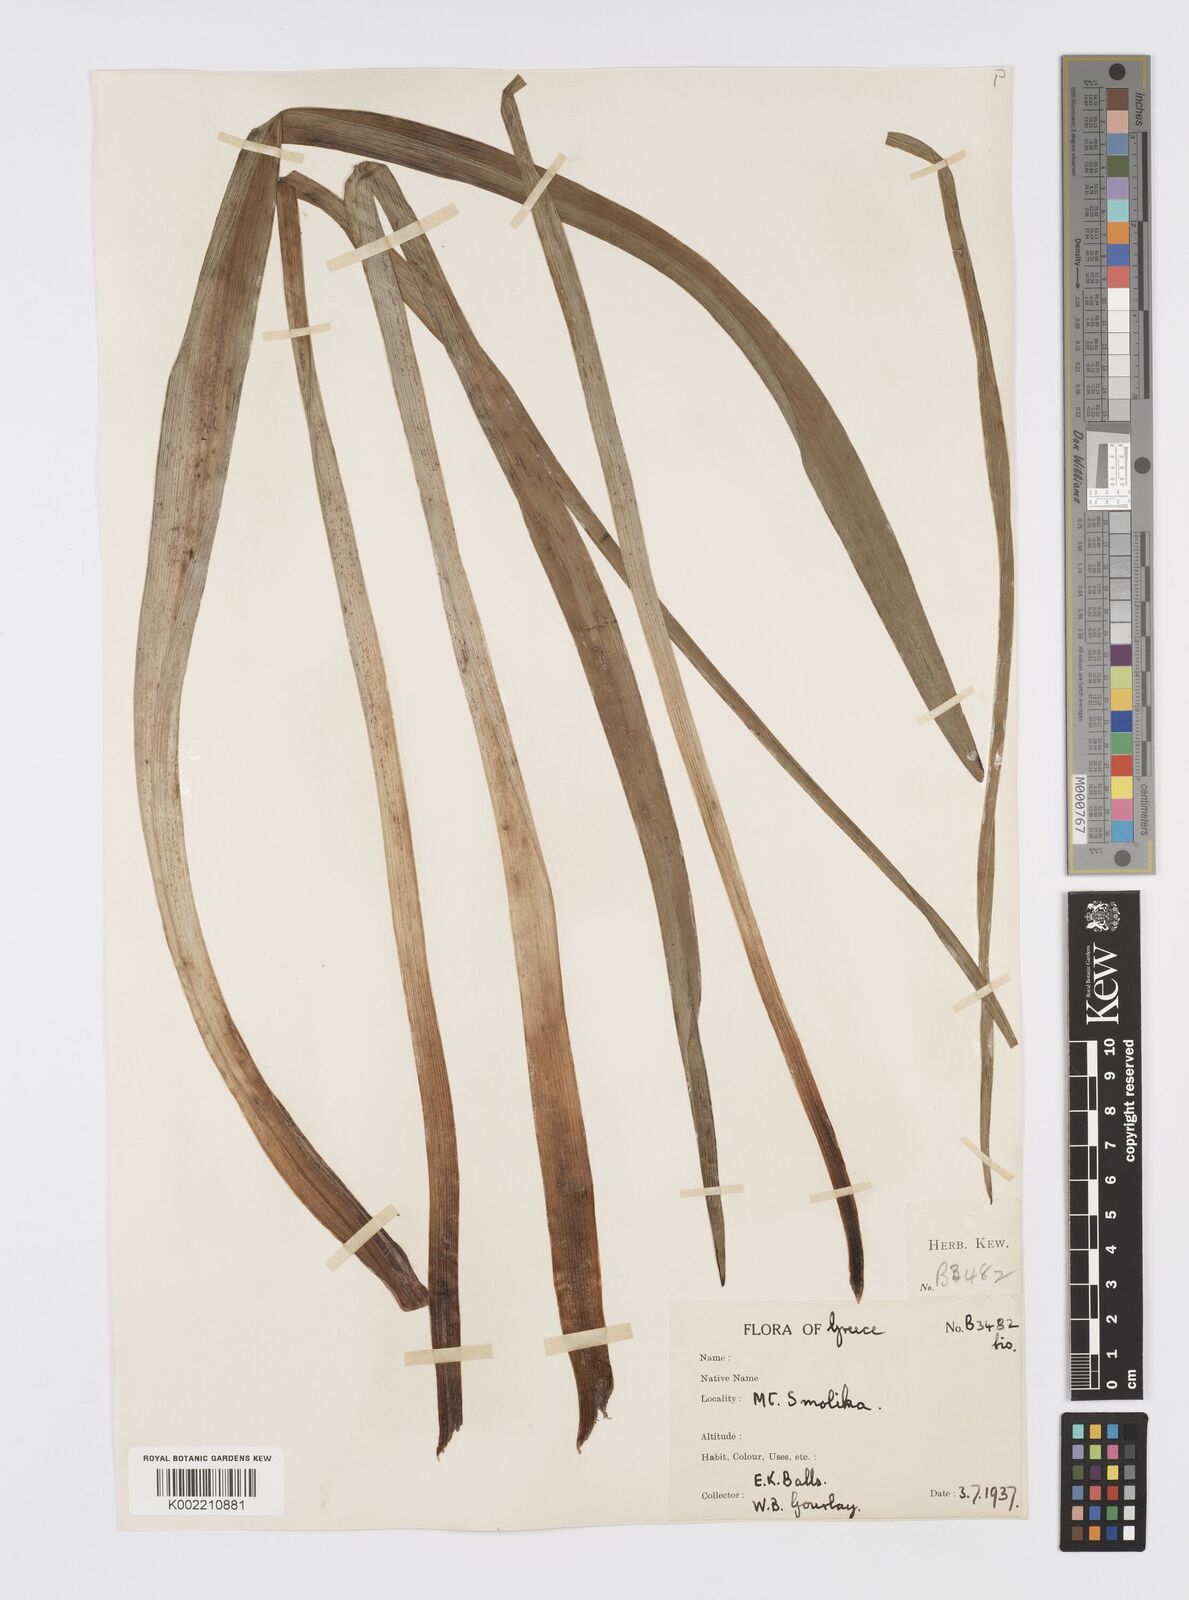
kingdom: Plantae
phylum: Tracheophyta
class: Liliopsida
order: Asparagales
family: Asphodelaceae
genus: Asphodelus
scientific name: Asphodelus albus
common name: White asphodel
